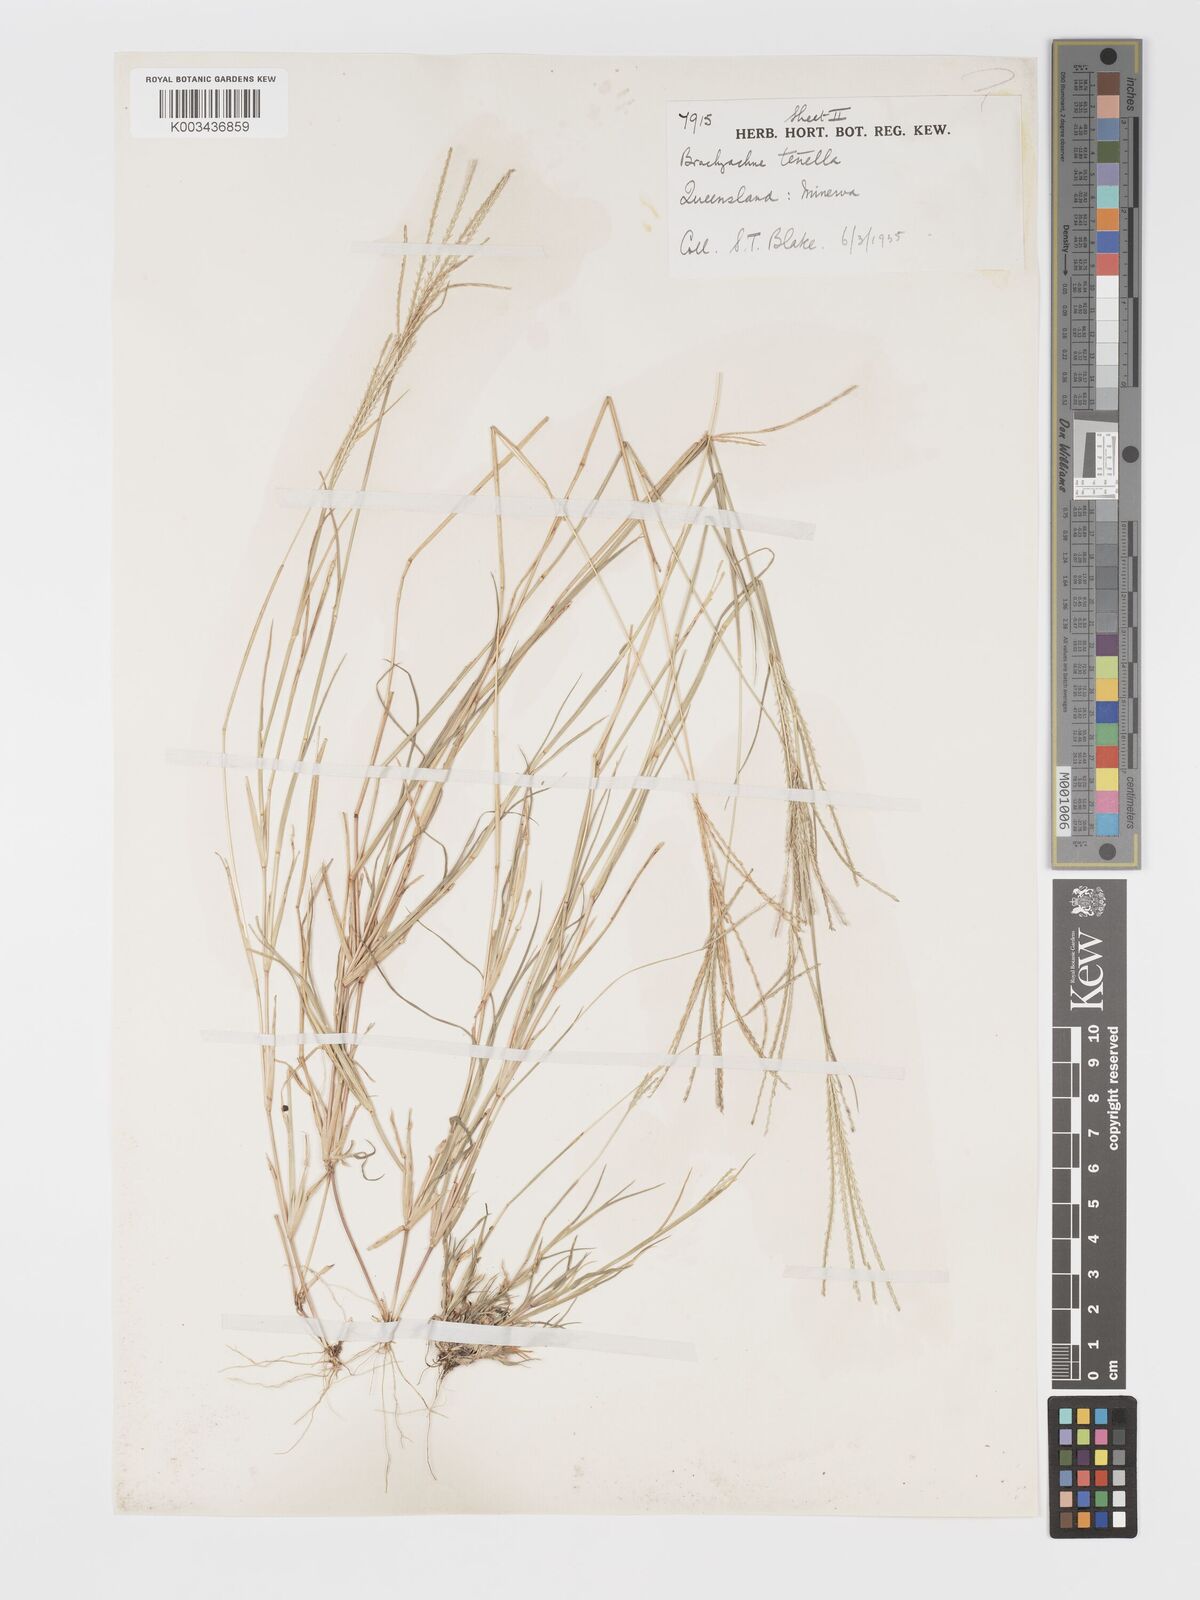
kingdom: Plantae
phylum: Tracheophyta
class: Liliopsida
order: Poales
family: Poaceae
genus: Cynodon
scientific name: Cynodon tenellus
